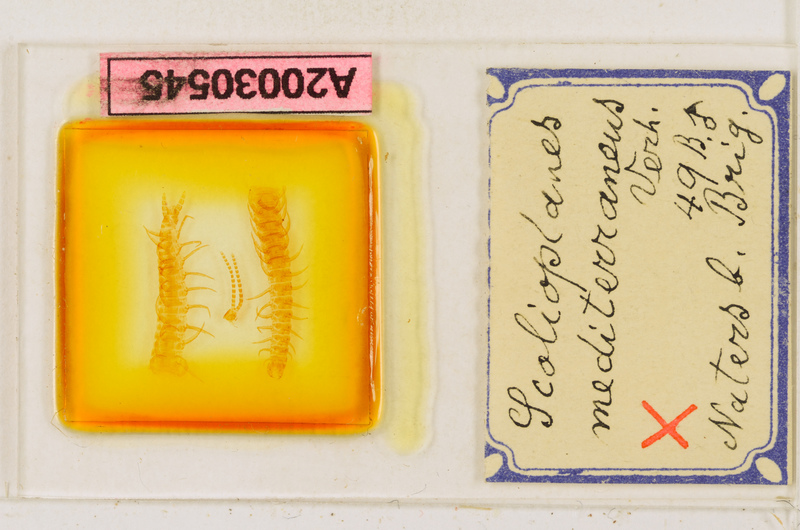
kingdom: Animalia
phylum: Arthropoda
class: Chilopoda
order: Geophilomorpha
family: Linotaeniidae
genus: Strigamia
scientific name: Strigamia crassipes
